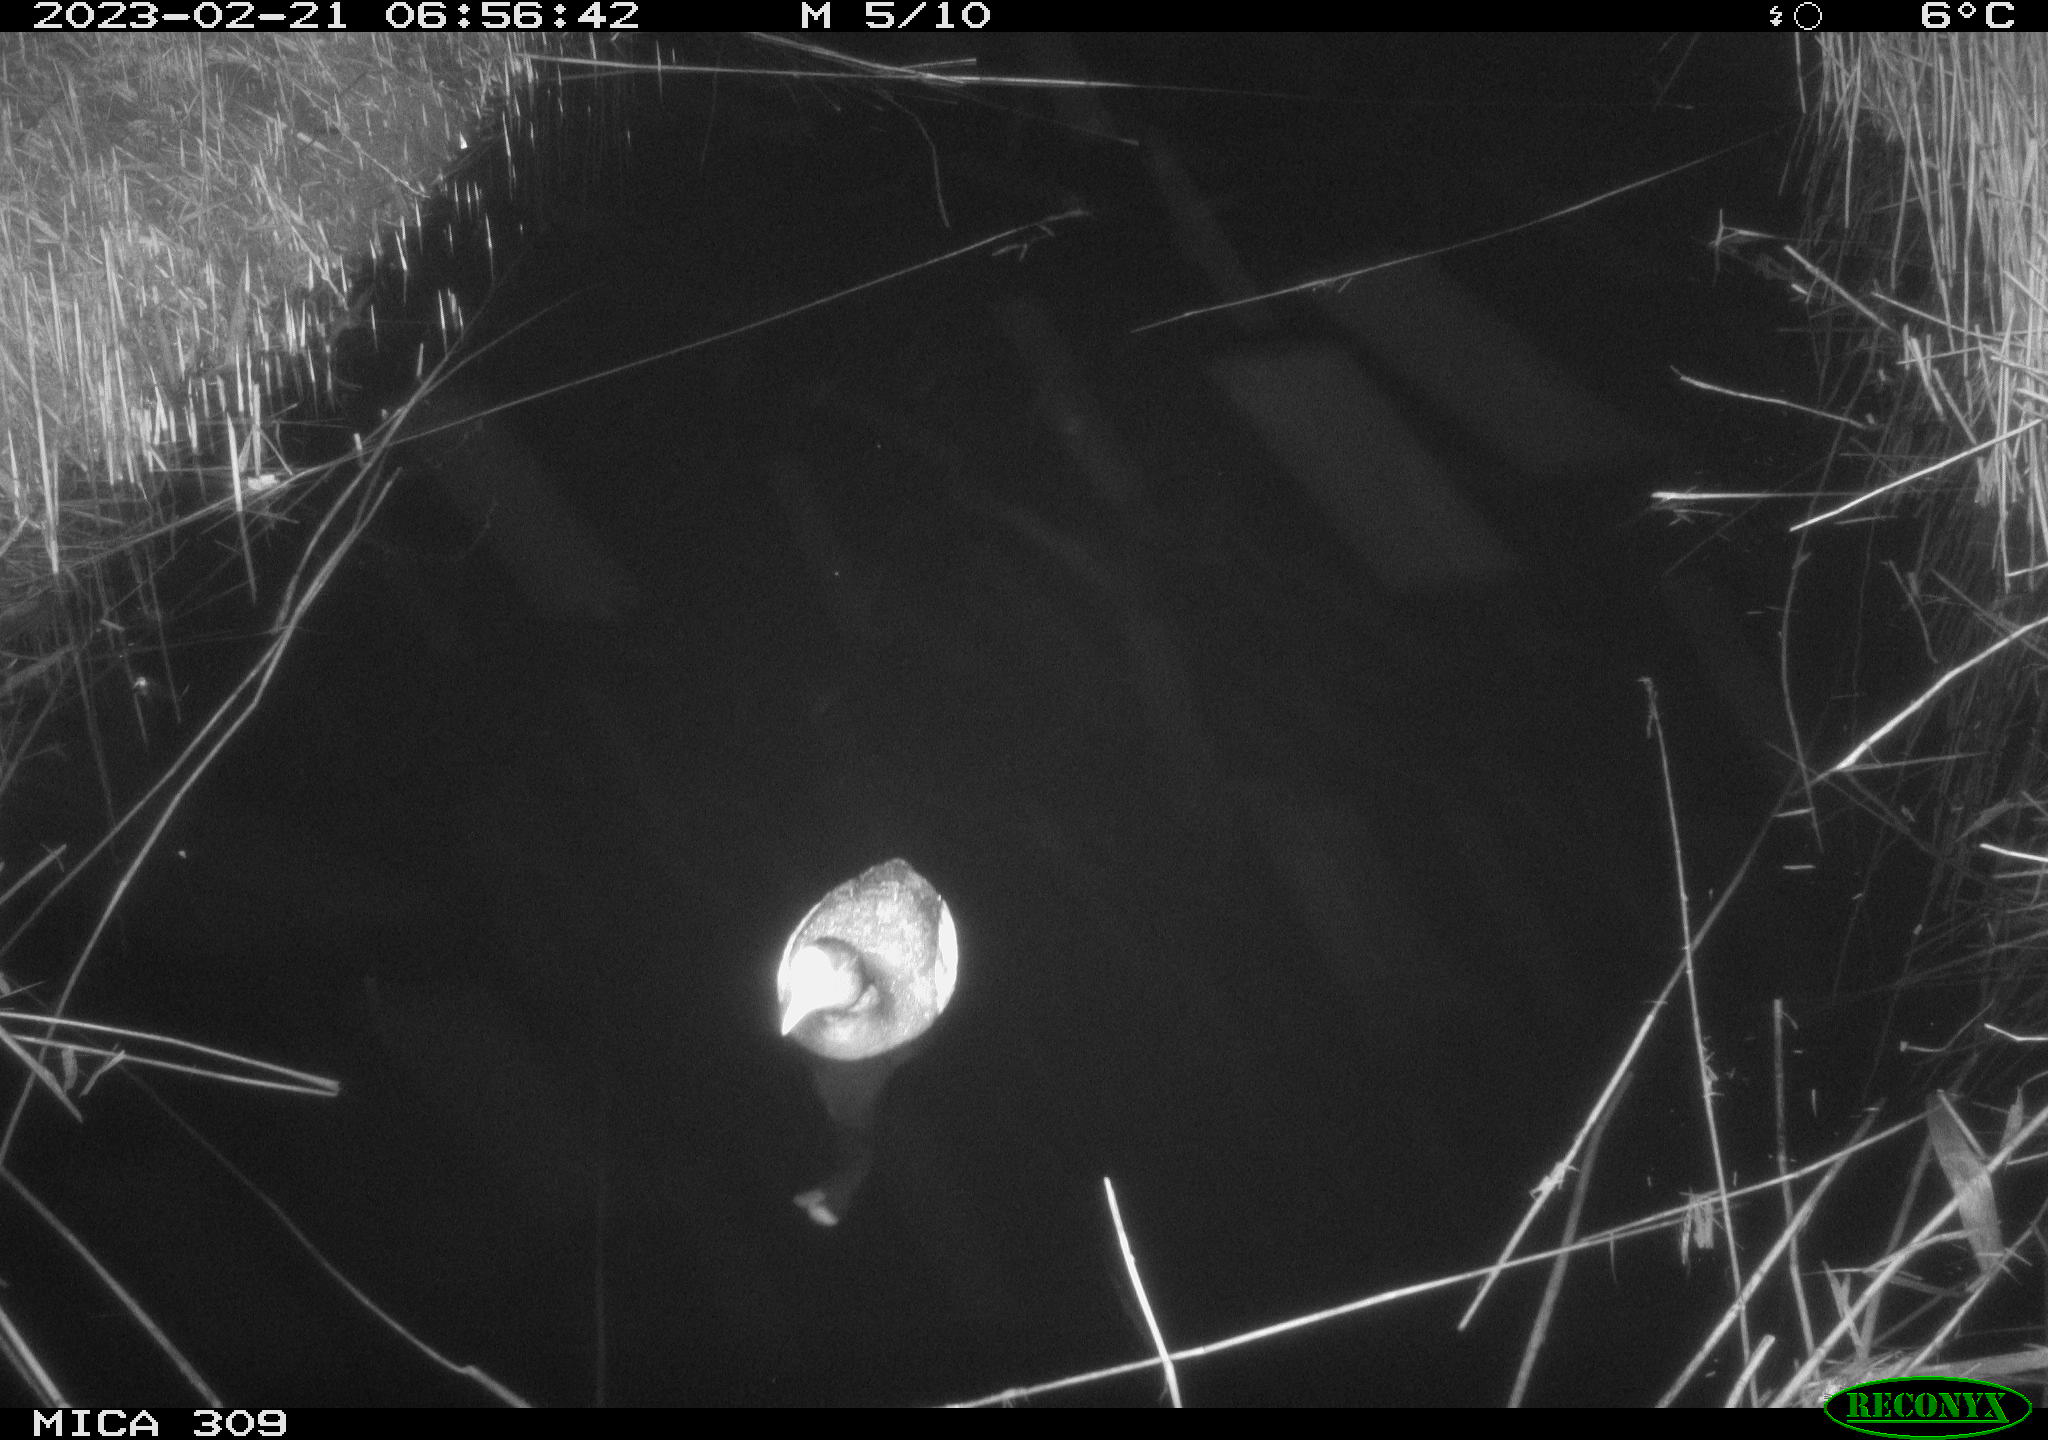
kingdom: Animalia
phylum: Chordata
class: Aves
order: Anseriformes
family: Anatidae
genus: Anas
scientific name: Anas
